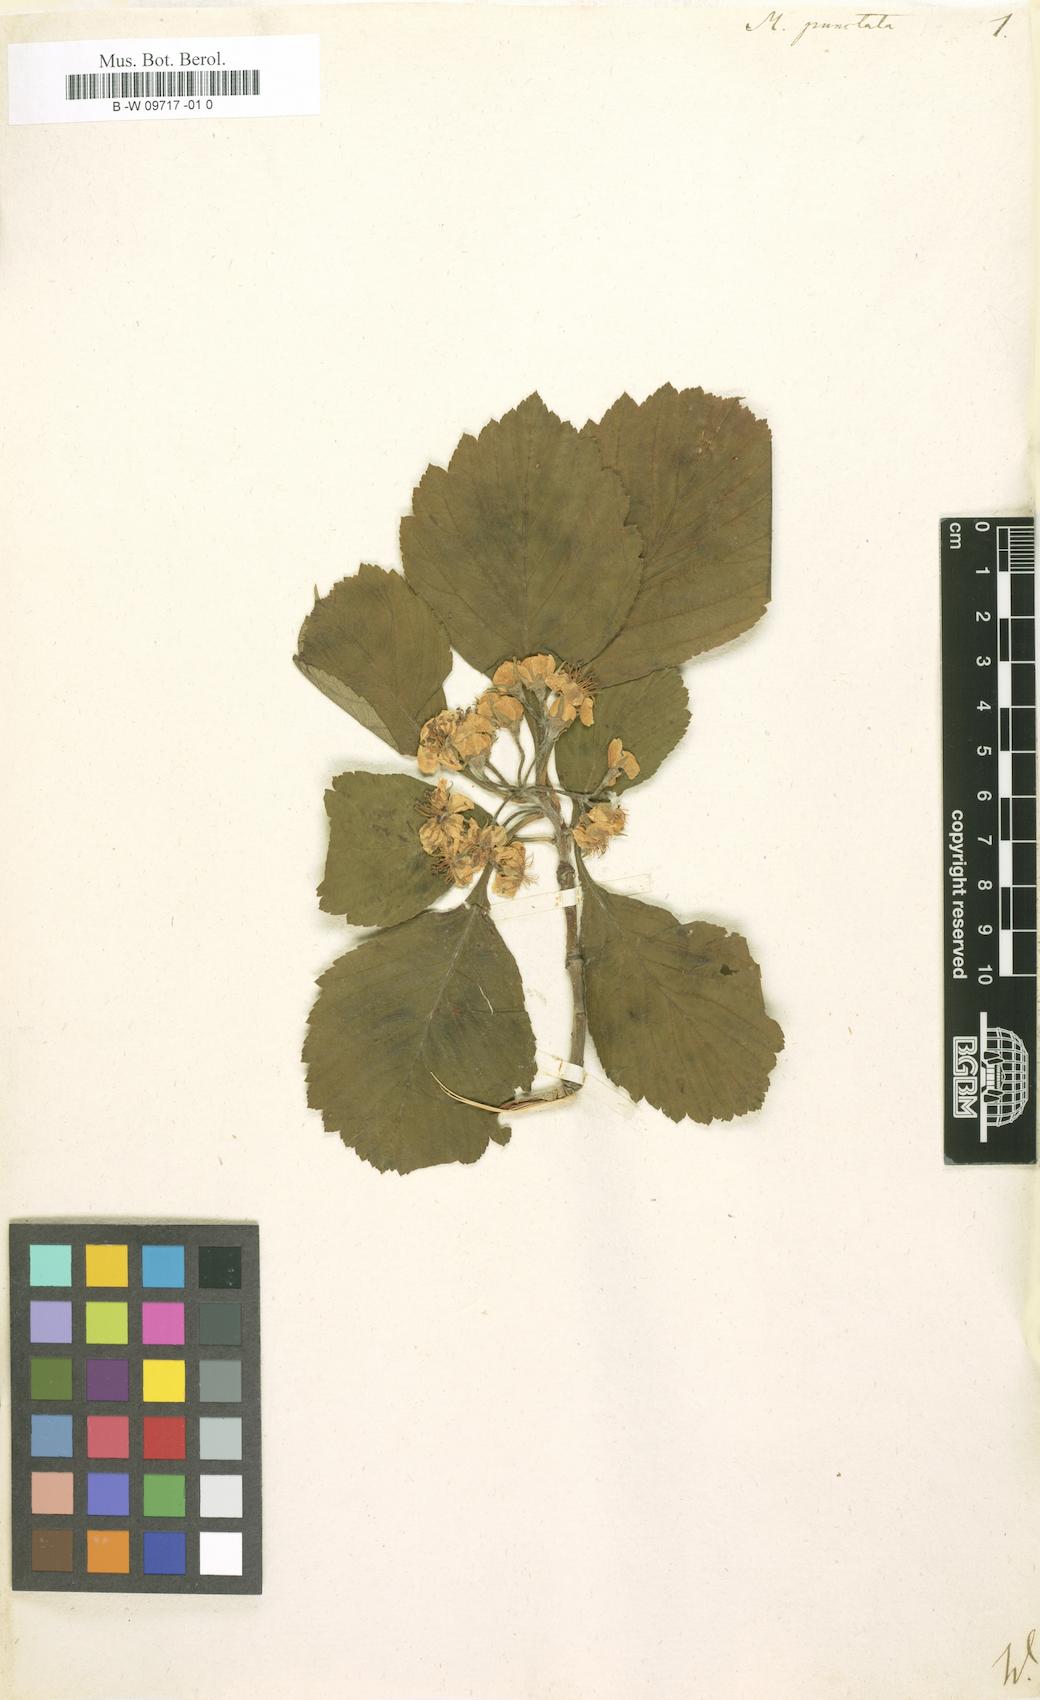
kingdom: Plantae
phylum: Tracheophyta
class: Magnoliopsida
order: Rosales
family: Rosaceae
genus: Crataegus
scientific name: Crataegus punctata
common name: Dotted hawthorn
